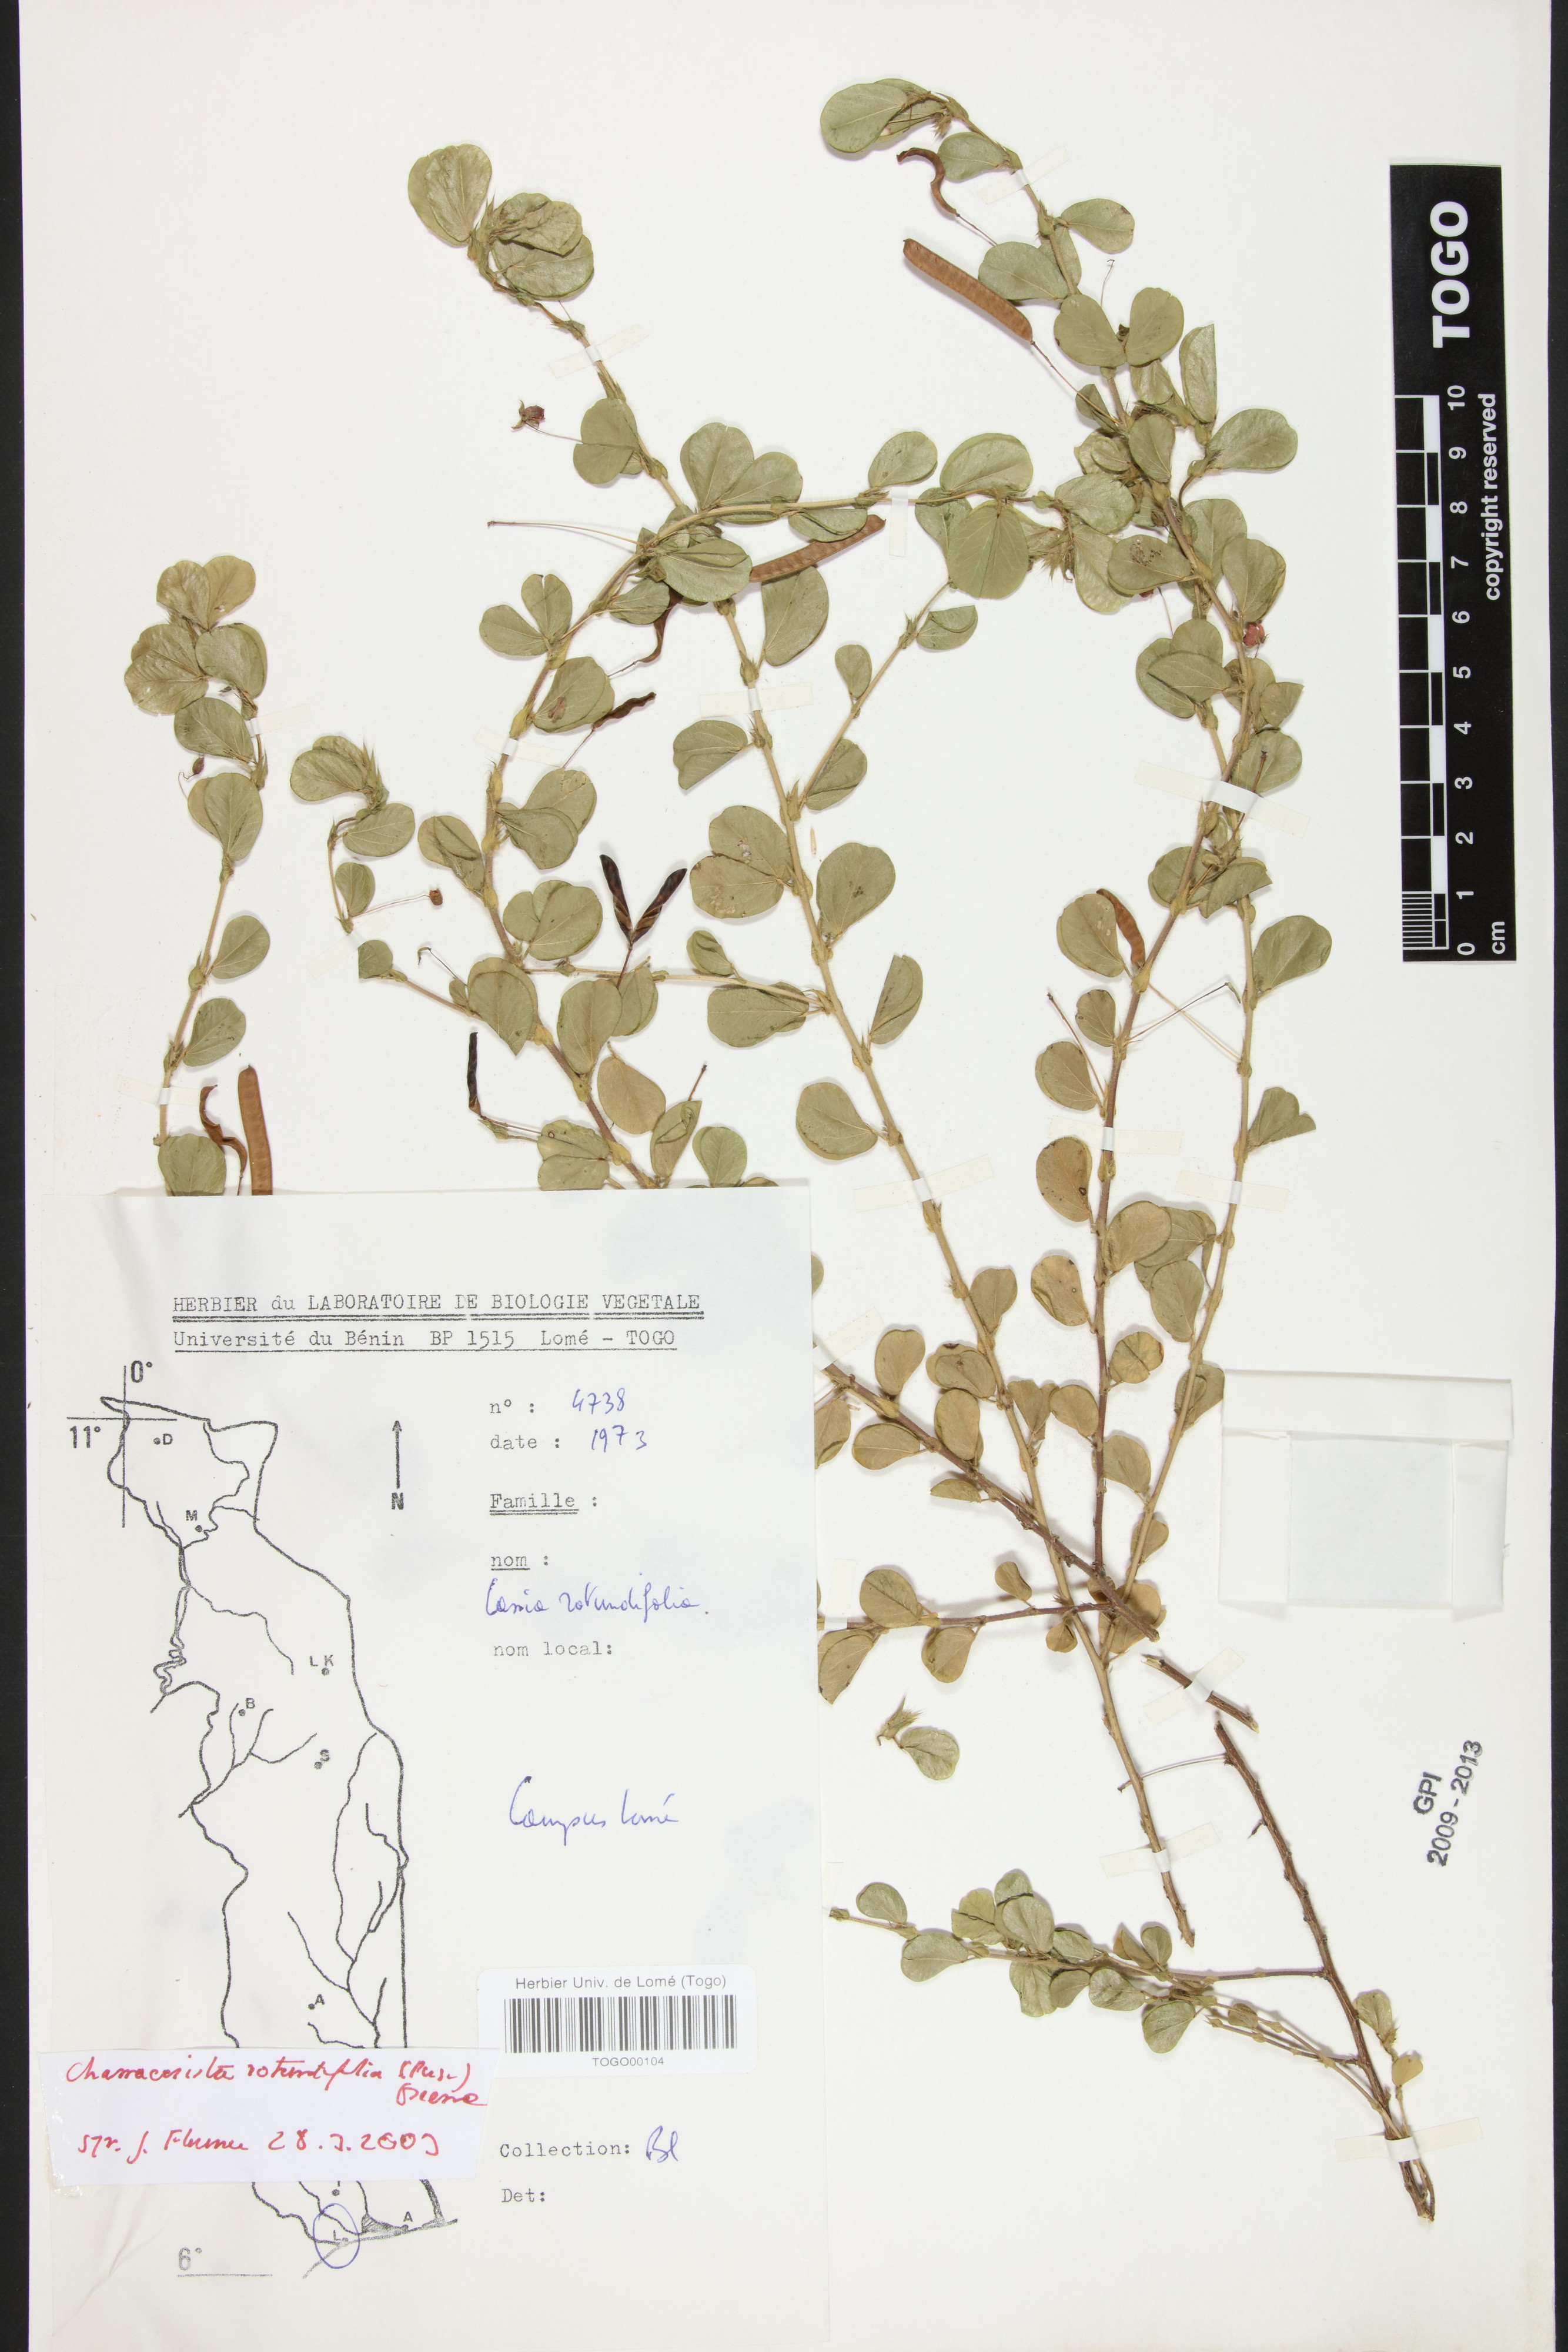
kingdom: Plantae
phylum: Tracheophyta
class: Magnoliopsida
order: Fabales
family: Fabaceae
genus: Chamaecrista
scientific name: Chamaecrista rotundifolia
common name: Round-leaf cassia
